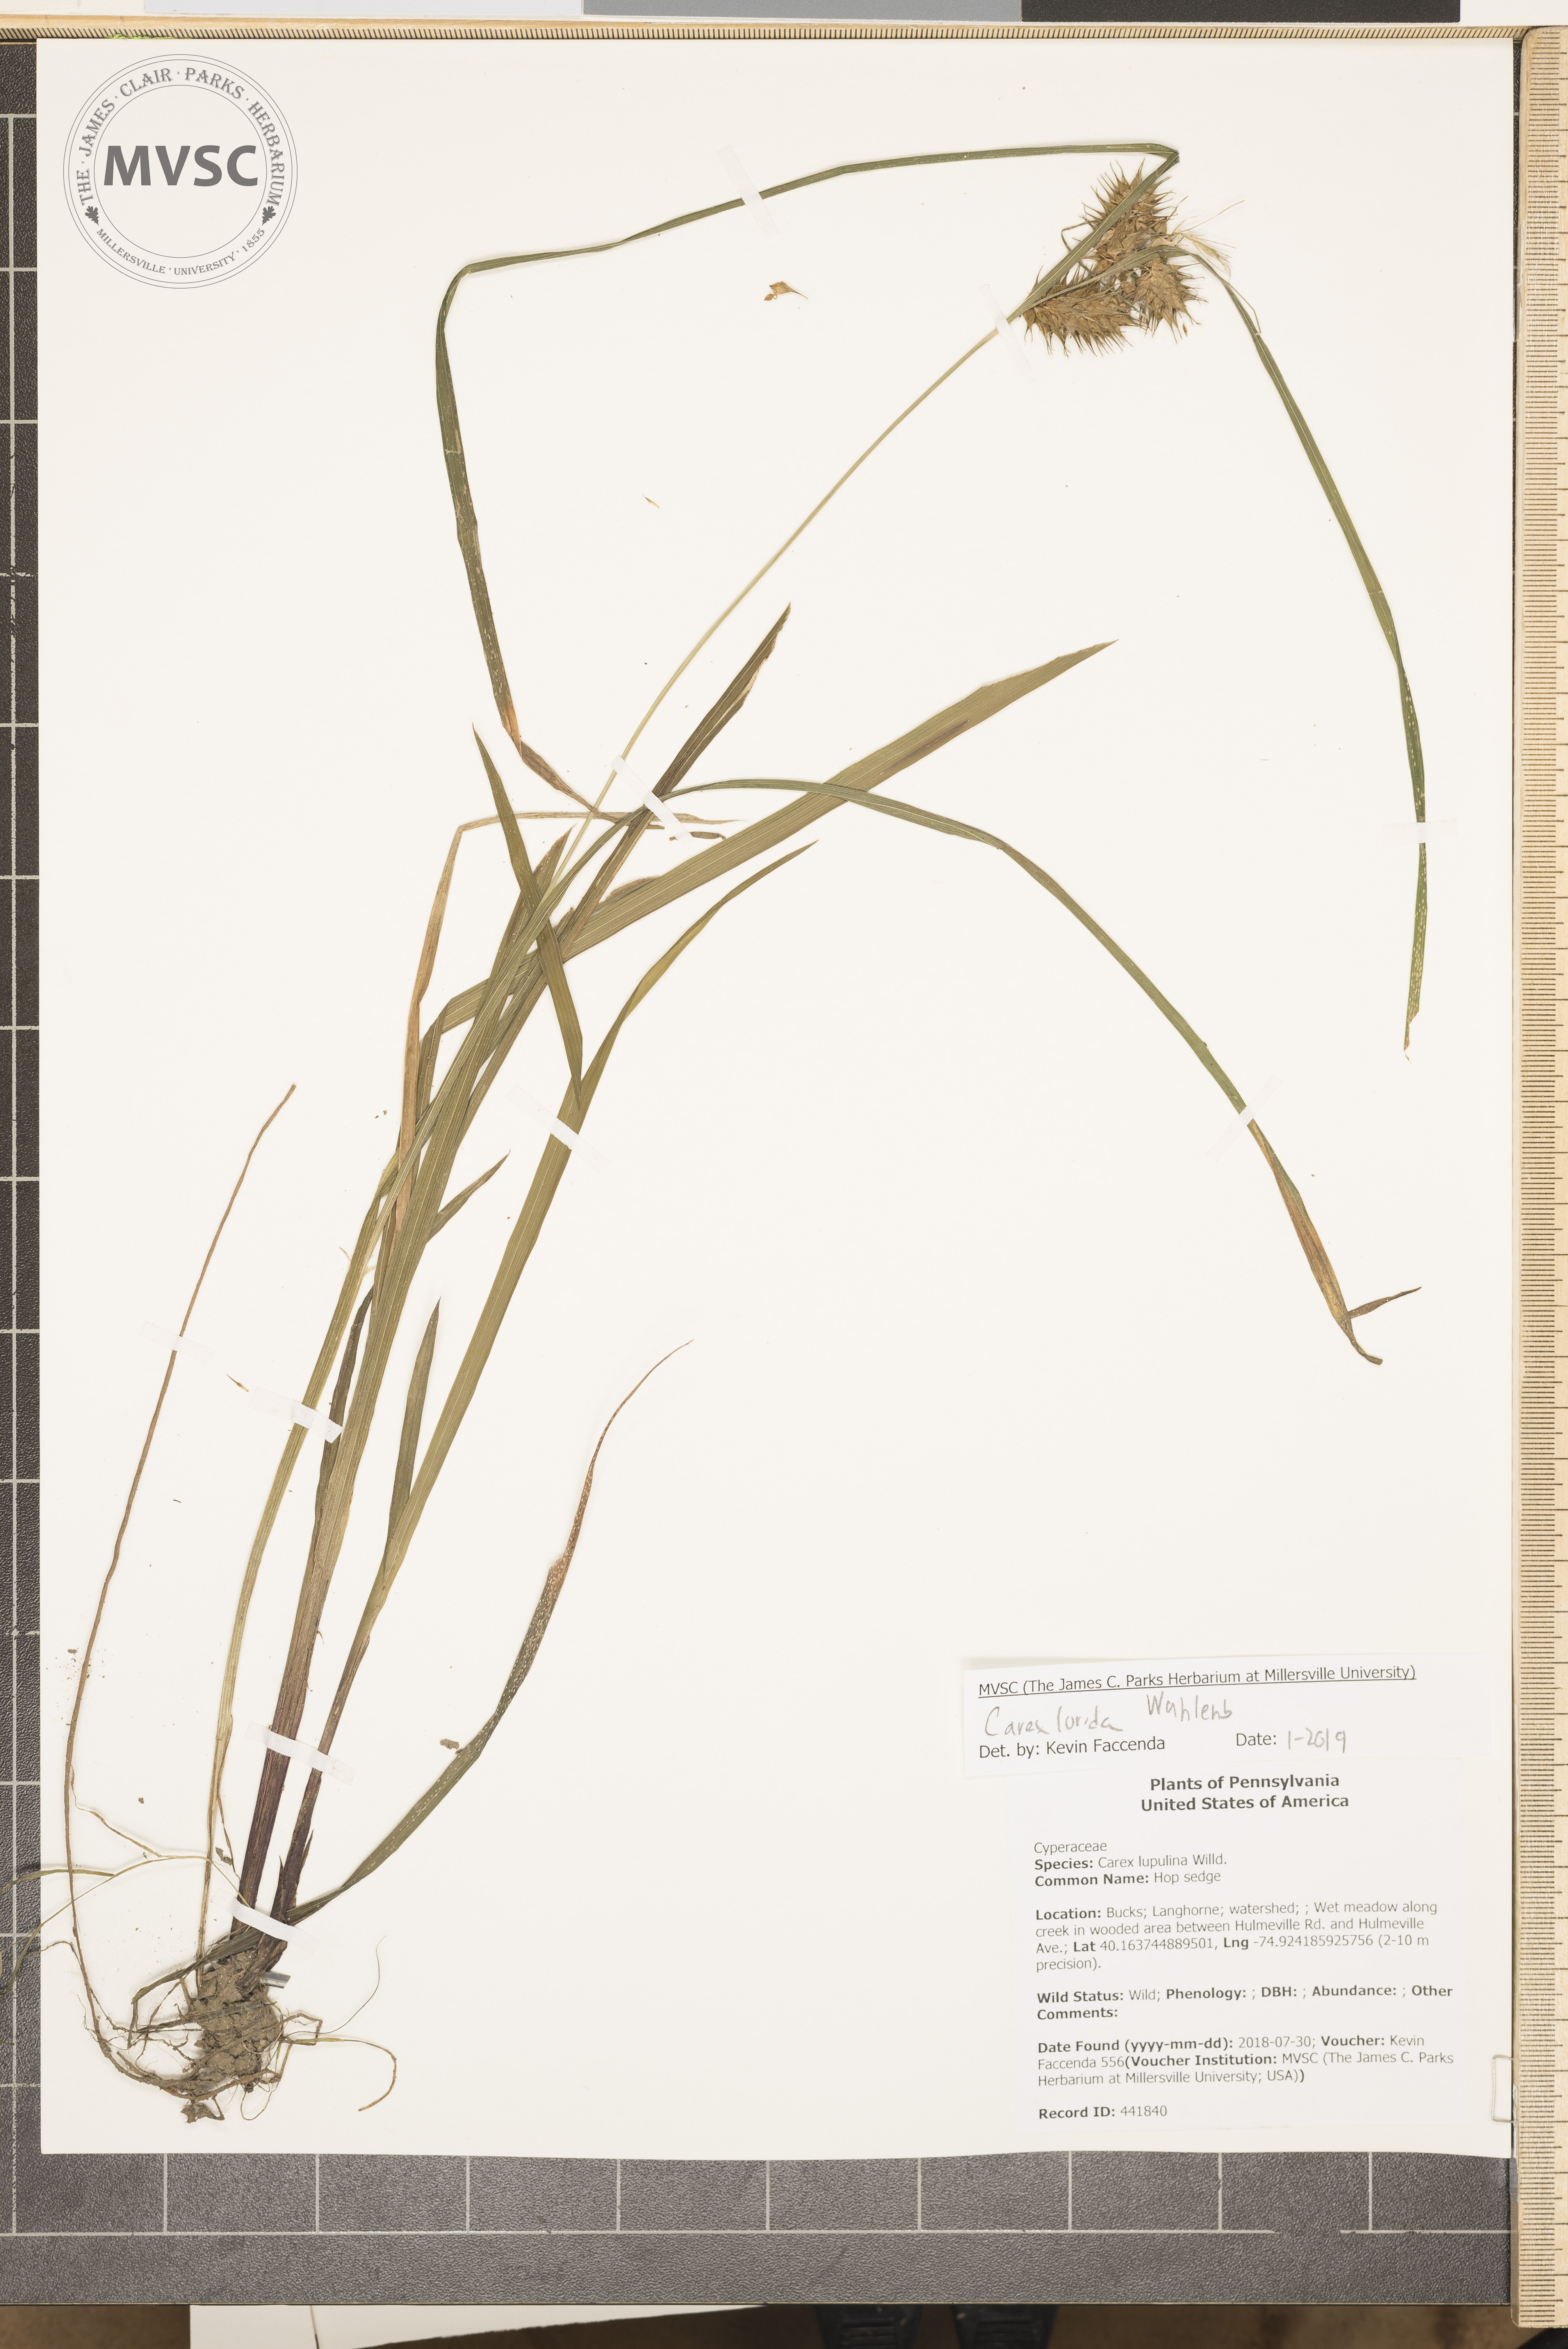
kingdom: Plantae
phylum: Tracheophyta
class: Liliopsida
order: Poales
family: Cyperaceae
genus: Carex
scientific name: Carex lurida
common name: Sallow sedge
